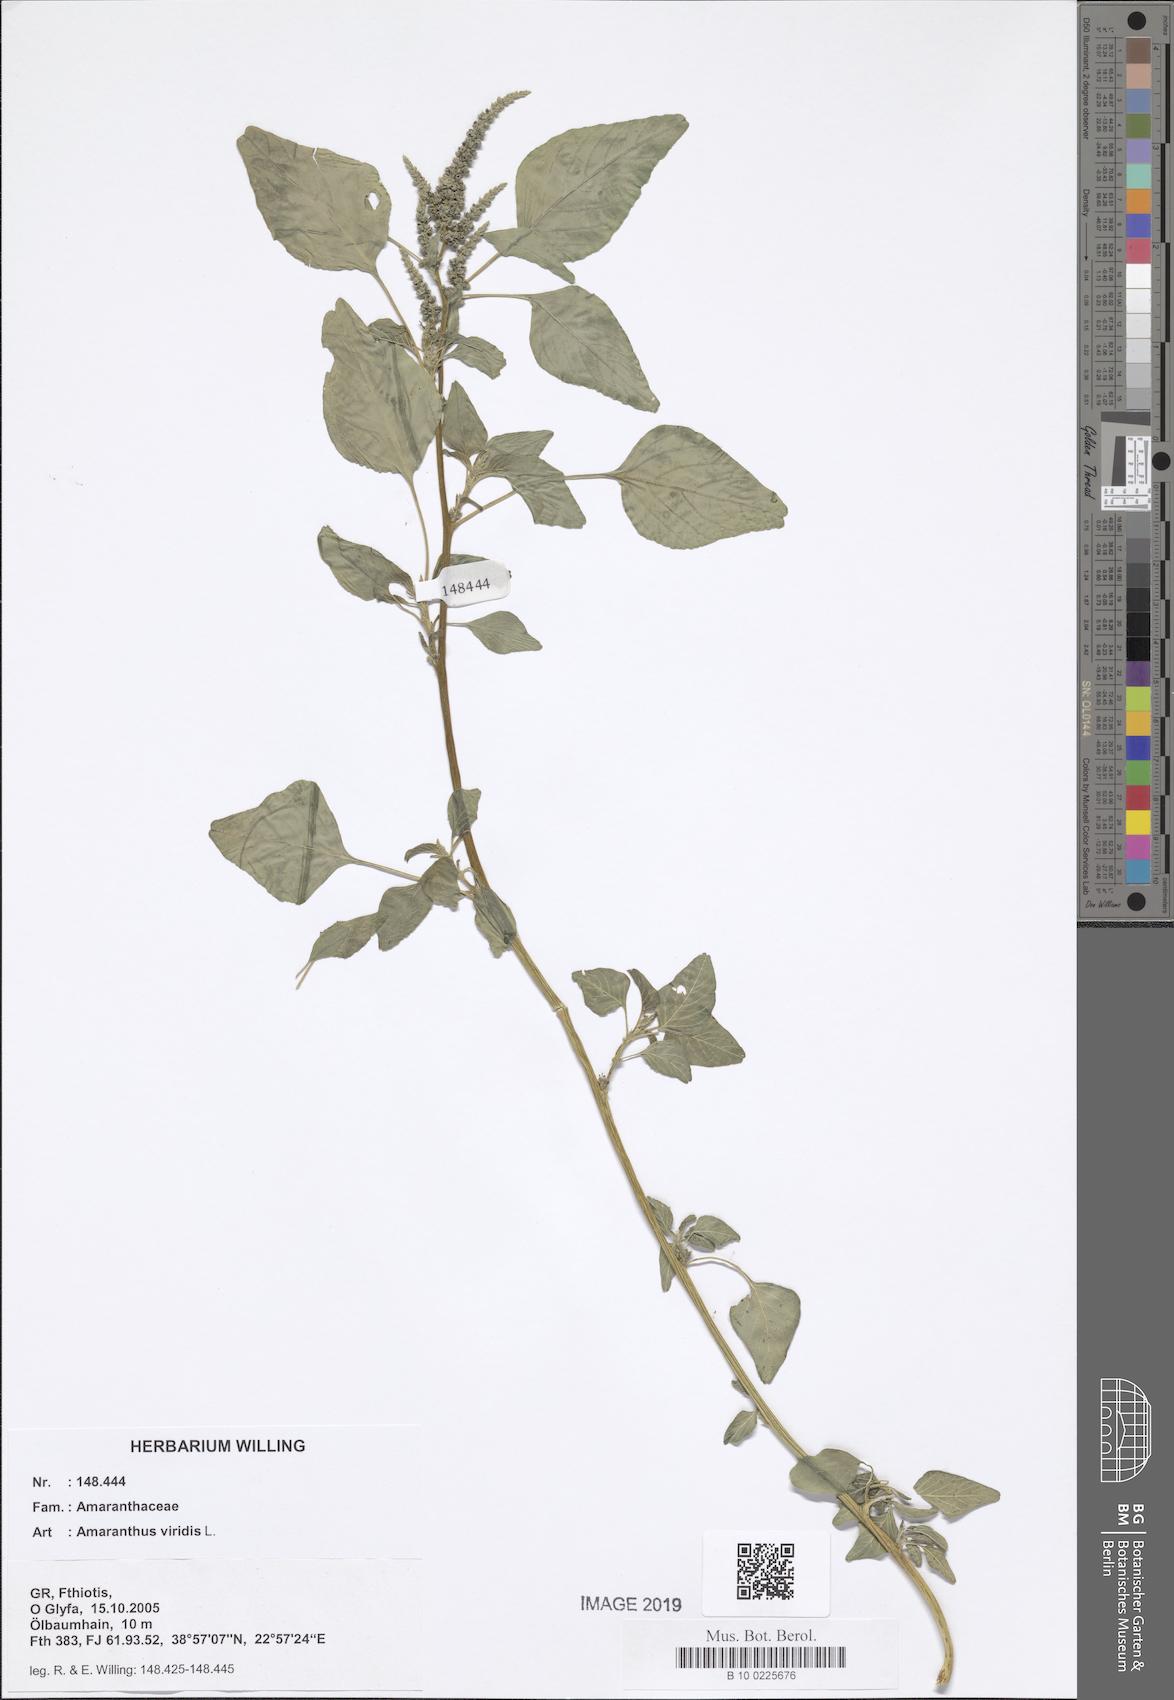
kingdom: Plantae
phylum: Tracheophyta
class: Magnoliopsida
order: Caryophyllales
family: Amaranthaceae
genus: Amaranthus
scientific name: Amaranthus viridis
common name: Slender amaranth
